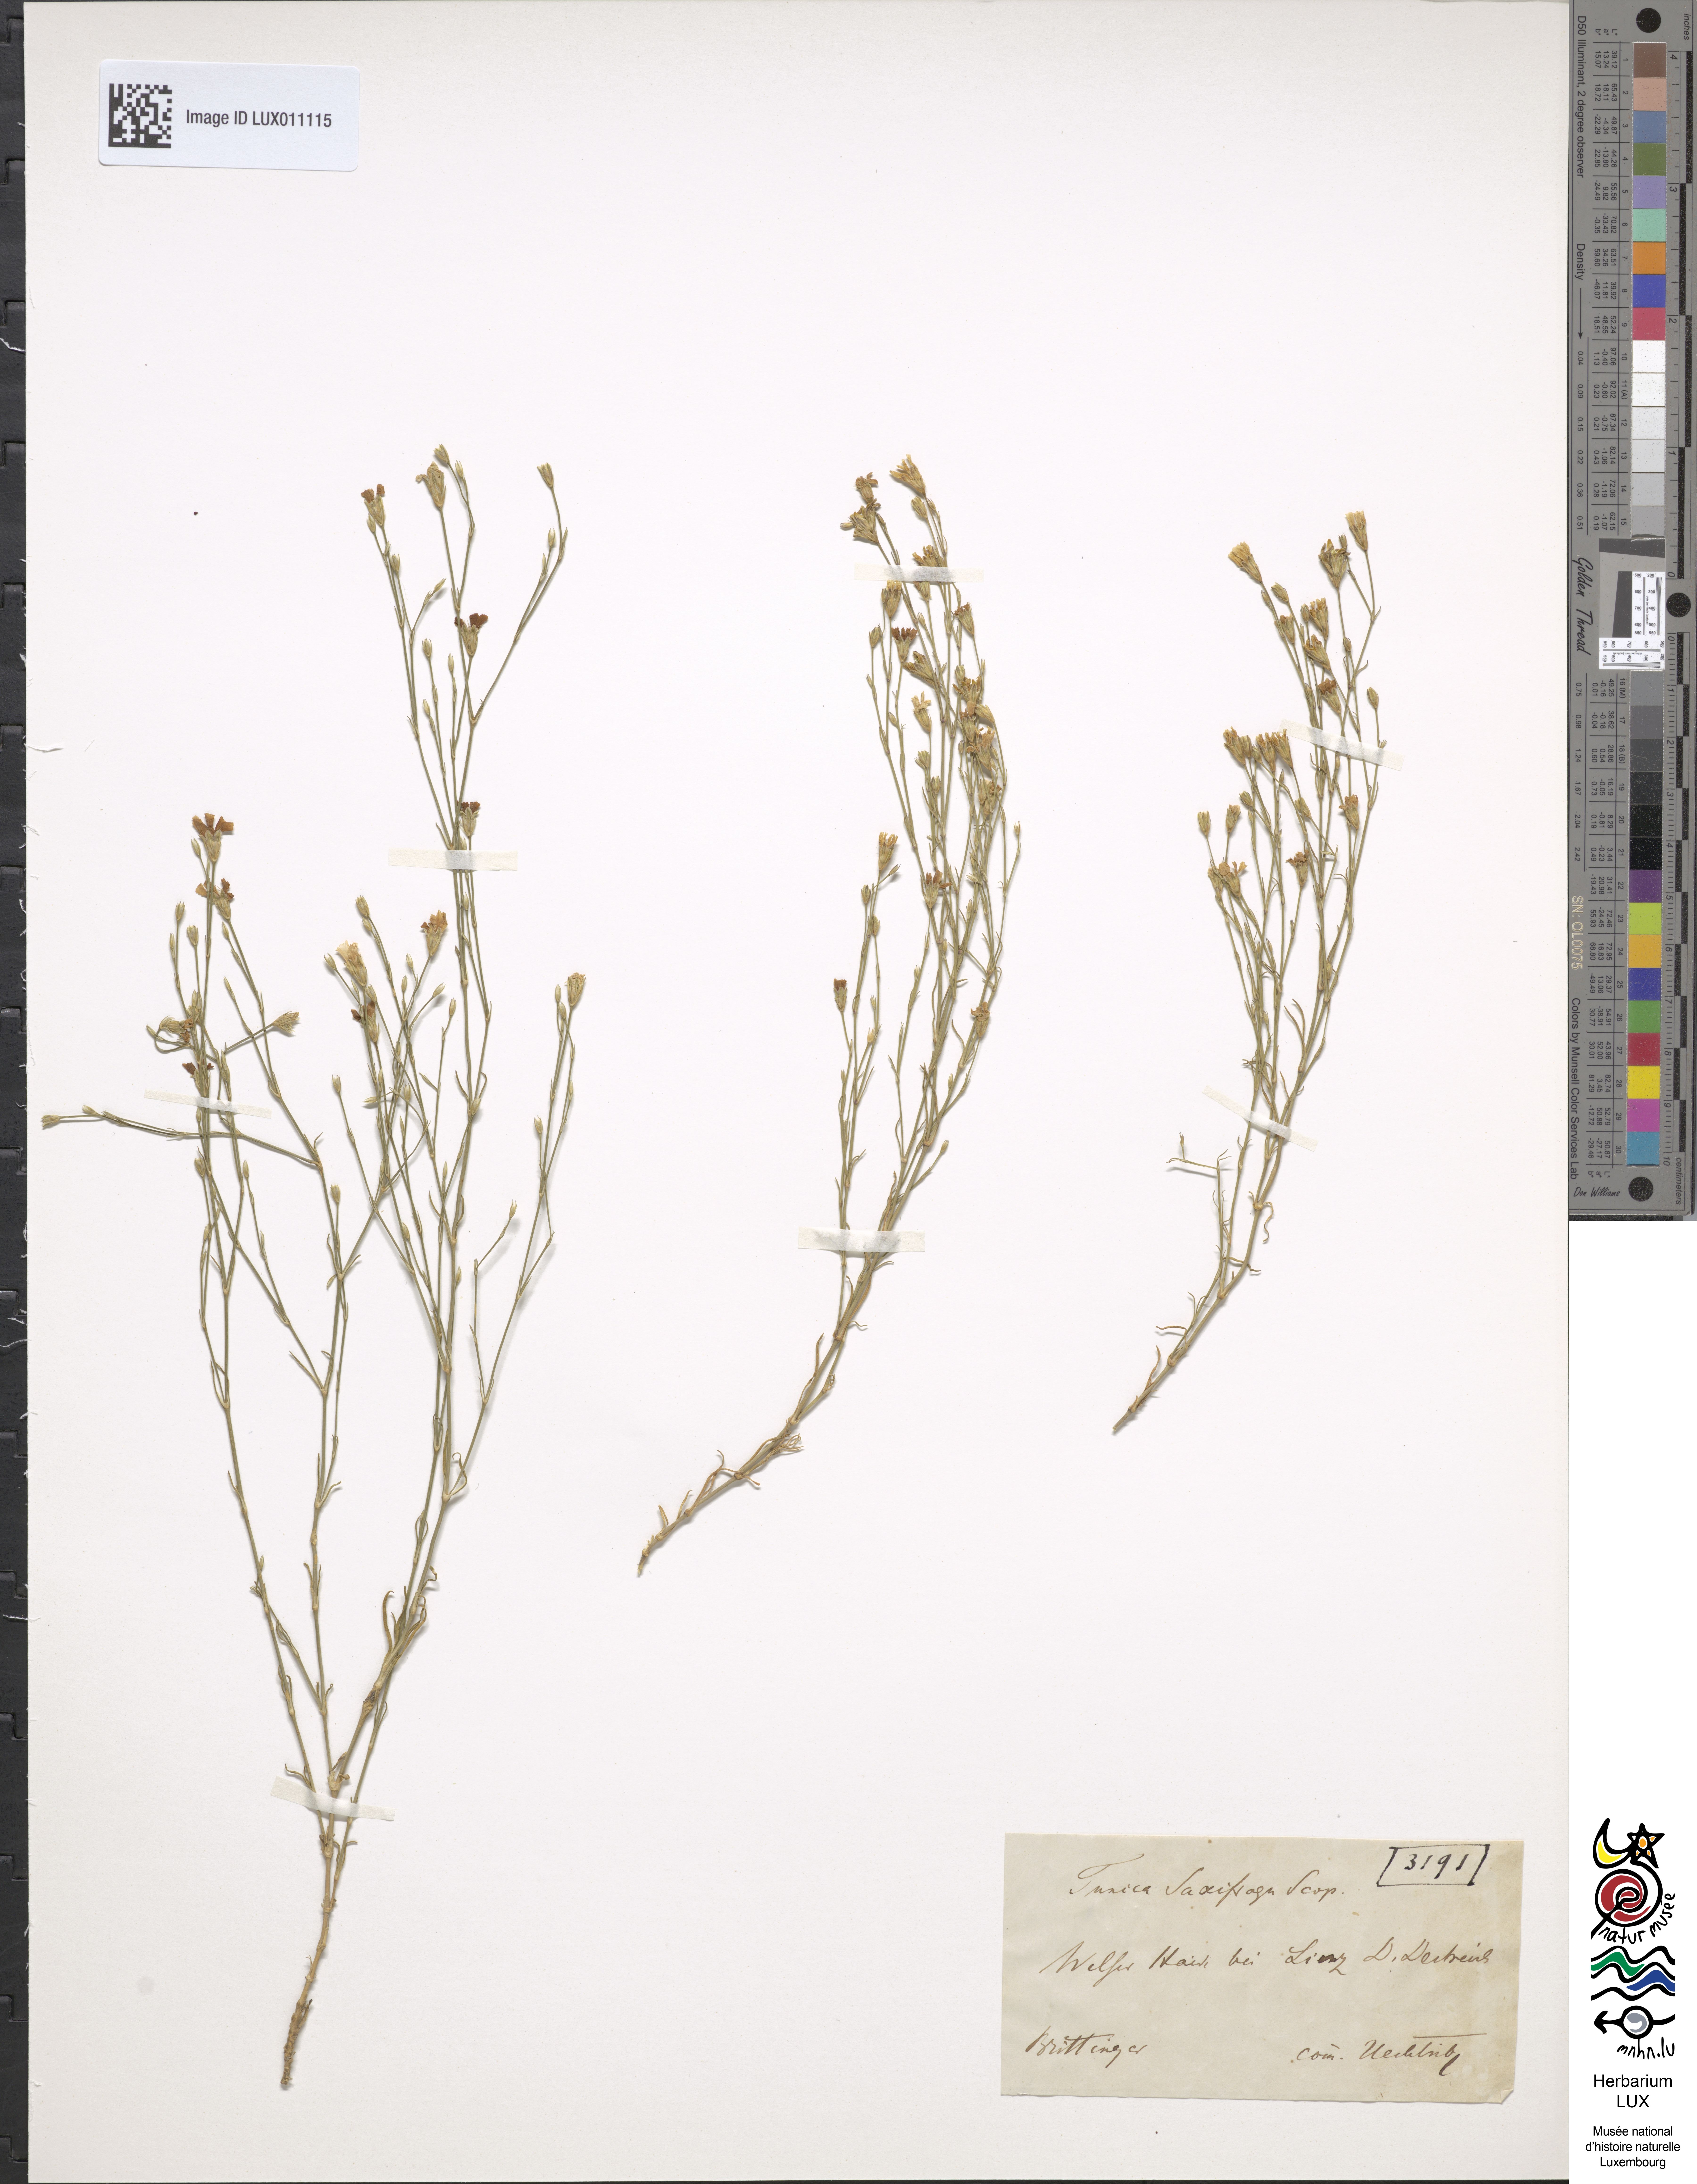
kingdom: Plantae
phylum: Tracheophyta
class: Magnoliopsida
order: Caryophyllales
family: Caryophyllaceae
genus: Petrorhagia
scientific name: Petrorhagia saxifraga
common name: Tunicflower
